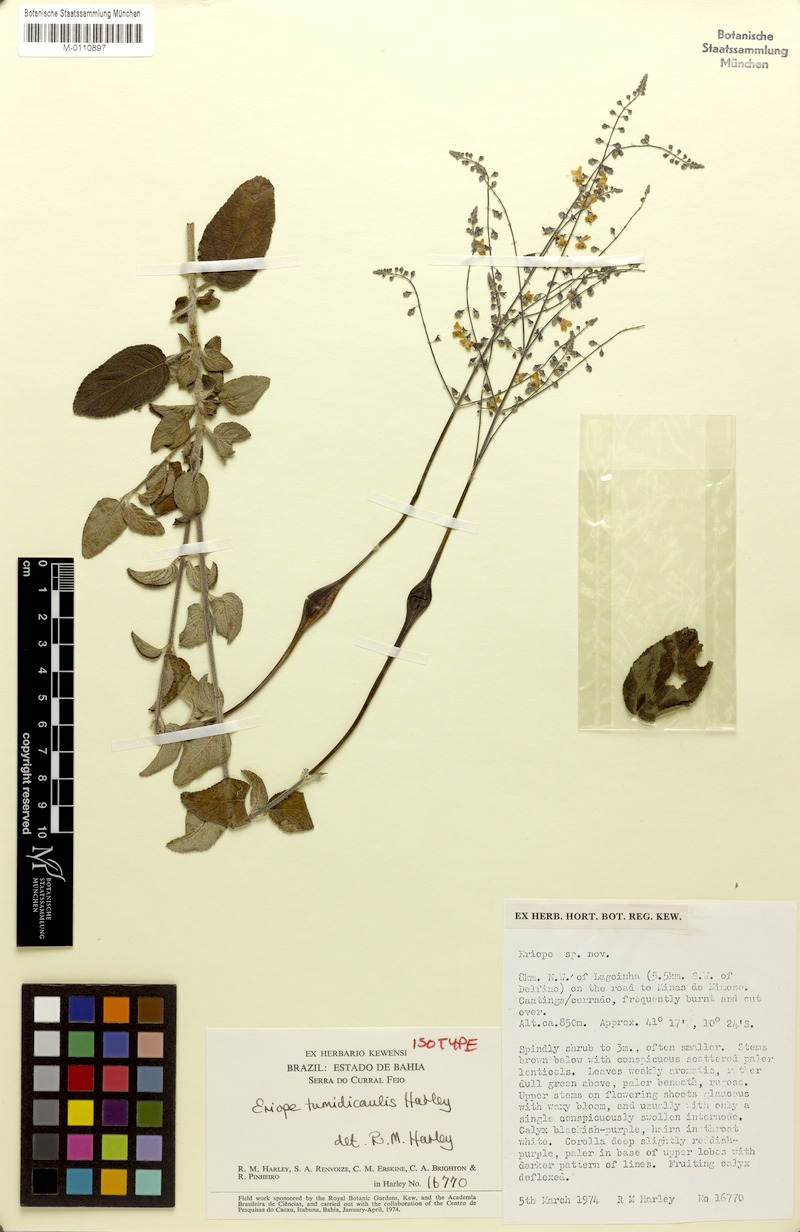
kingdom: Plantae
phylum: Tracheophyta
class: Magnoliopsida
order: Lamiales
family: Lamiaceae
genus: Eriope
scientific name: Eriope tumidicaulis
